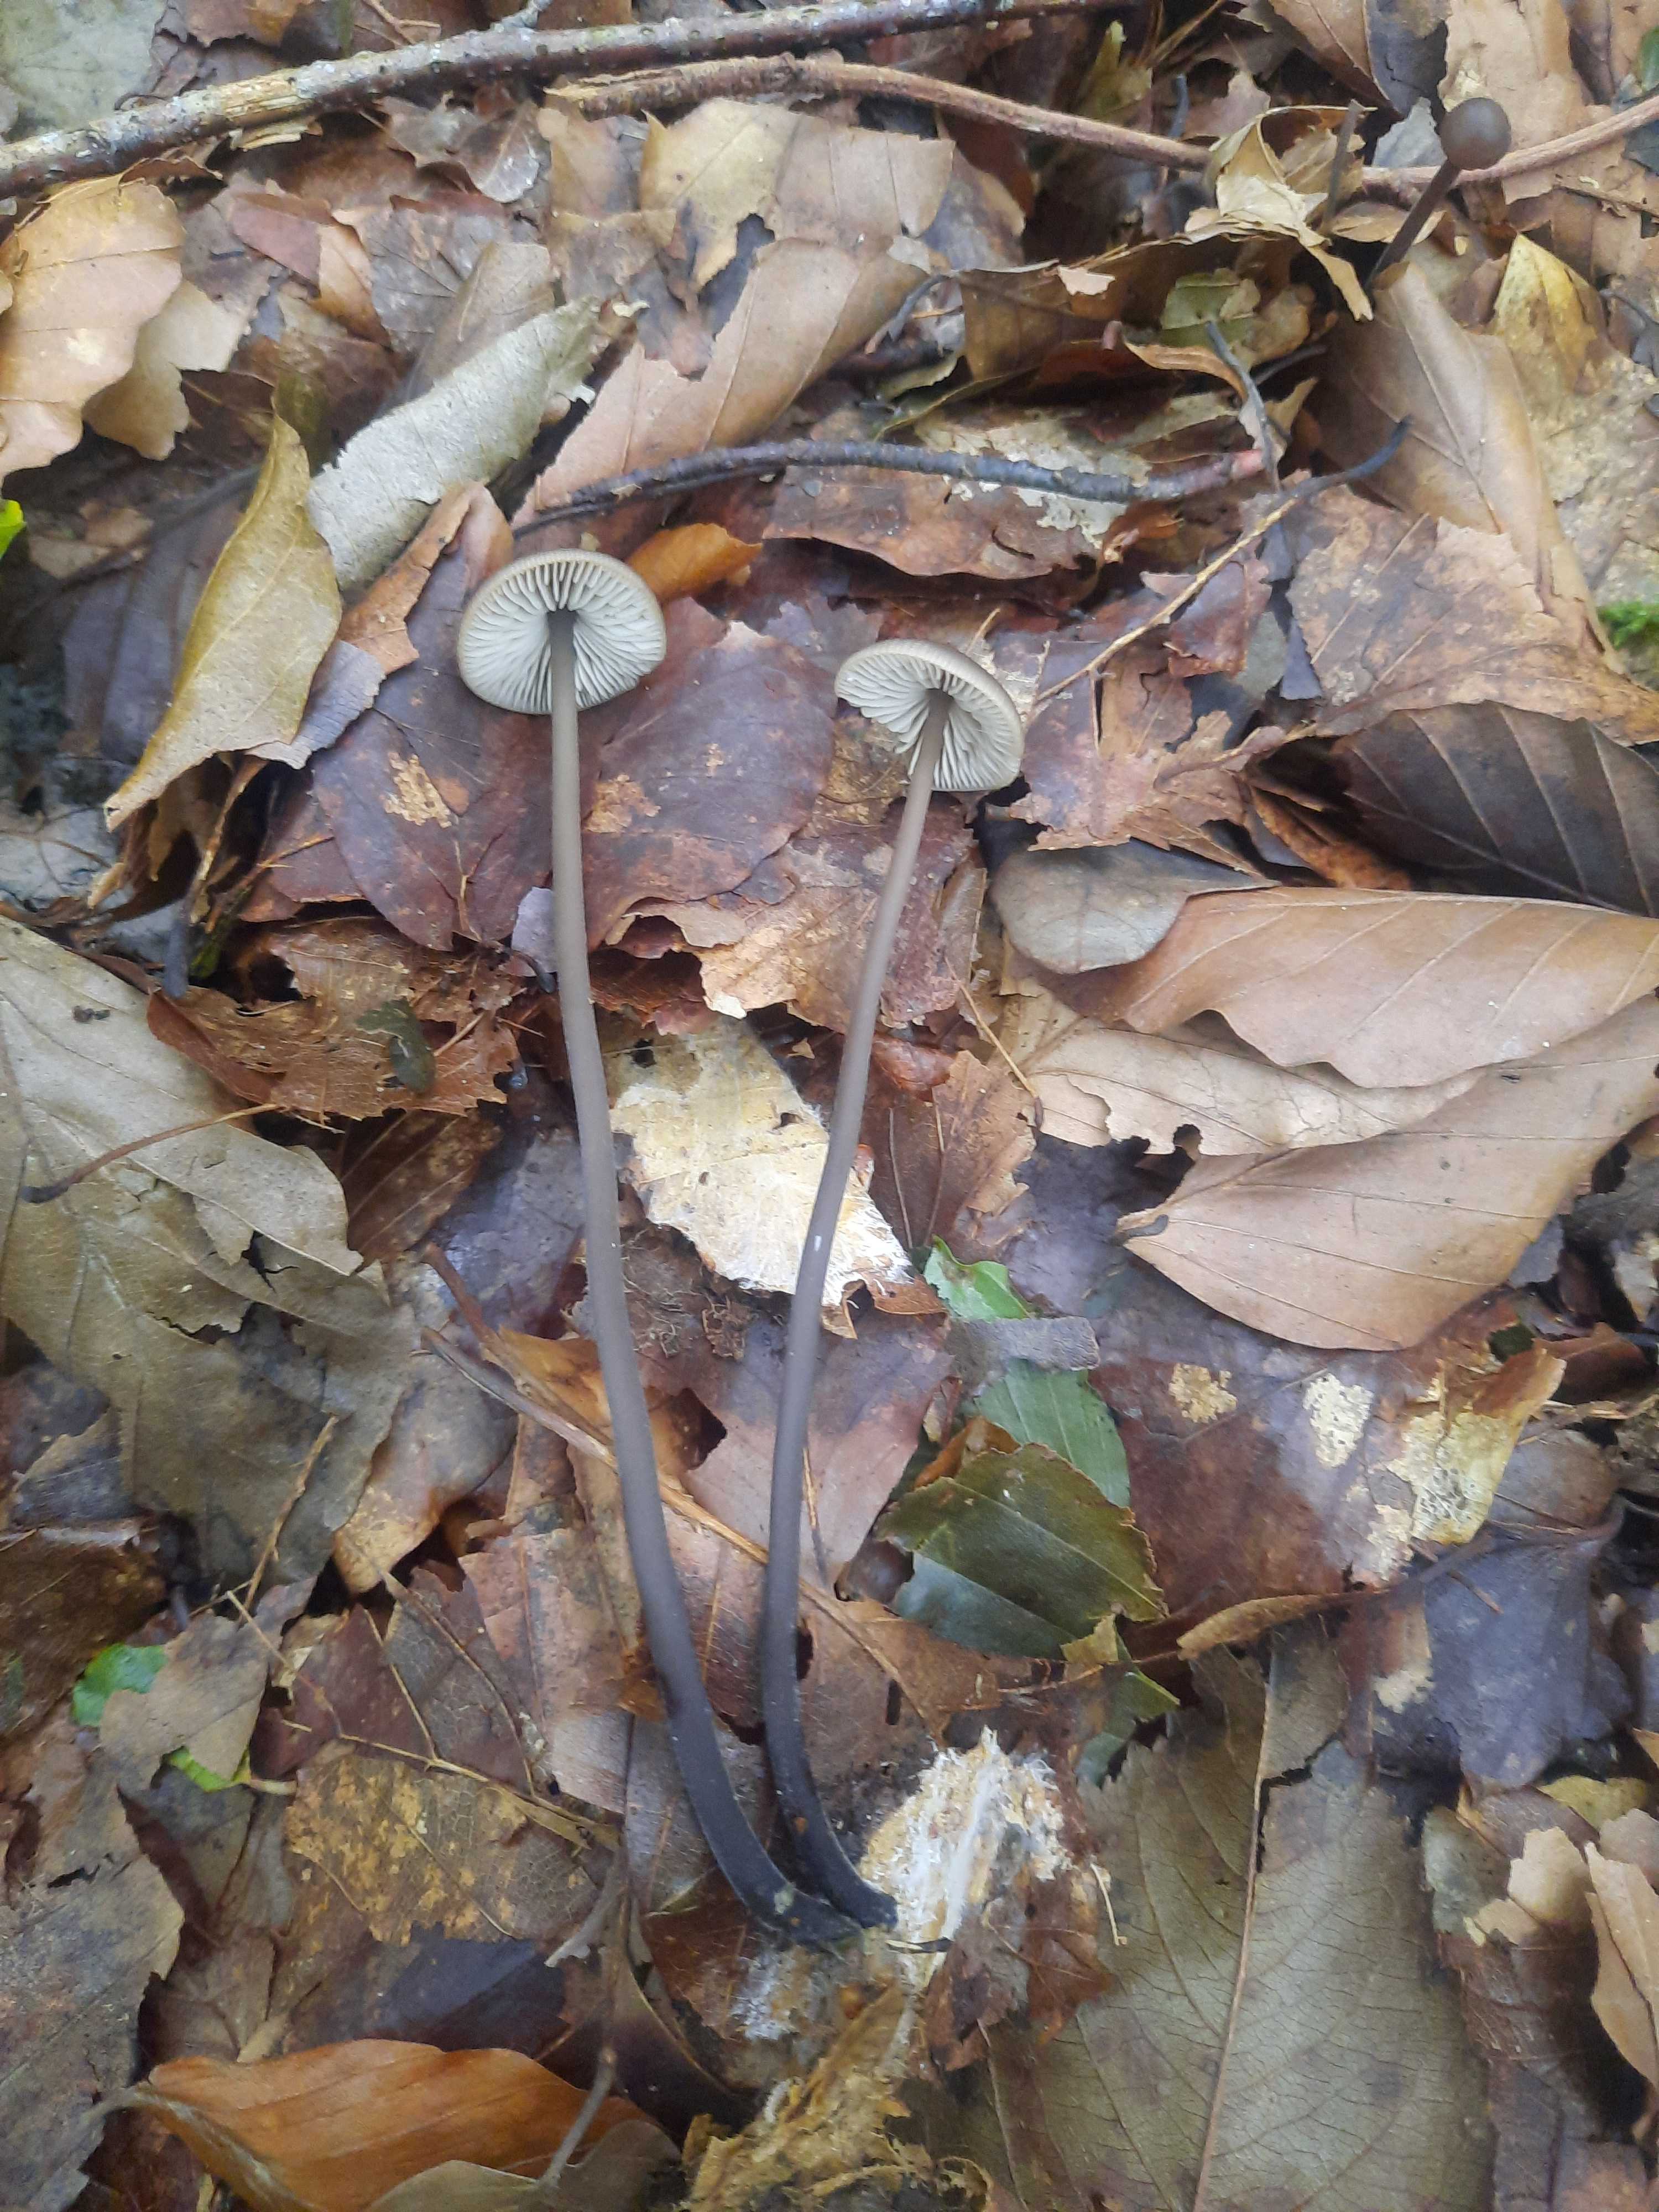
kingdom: Fungi
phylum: Basidiomycota
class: Agaricomycetes
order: Agaricales
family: Omphalotaceae
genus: Mycetinis
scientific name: Mycetinis alliaceus
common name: stor løghat
